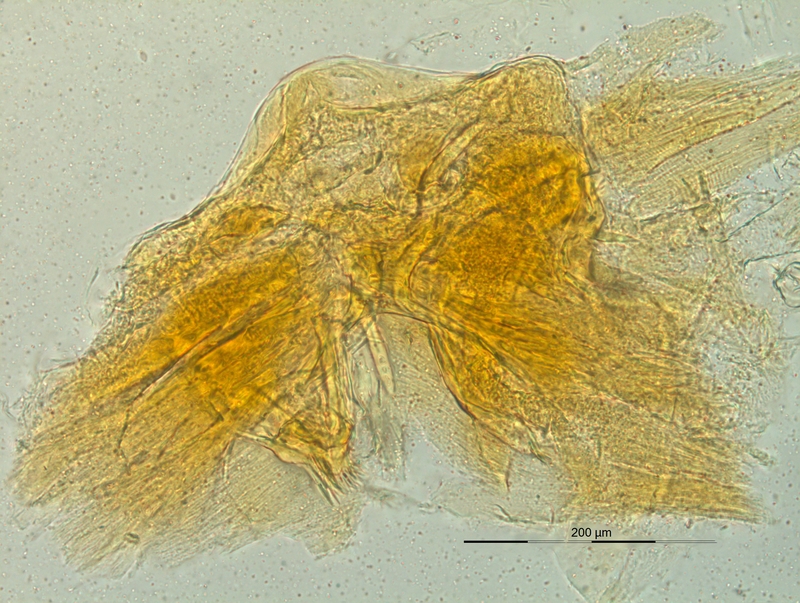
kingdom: Animalia
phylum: Arthropoda
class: Diplopoda
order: Chordeumatida
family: Craspedosomatidae
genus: Dactylophorosoma
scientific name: Dactylophorosoma nivisatelles
